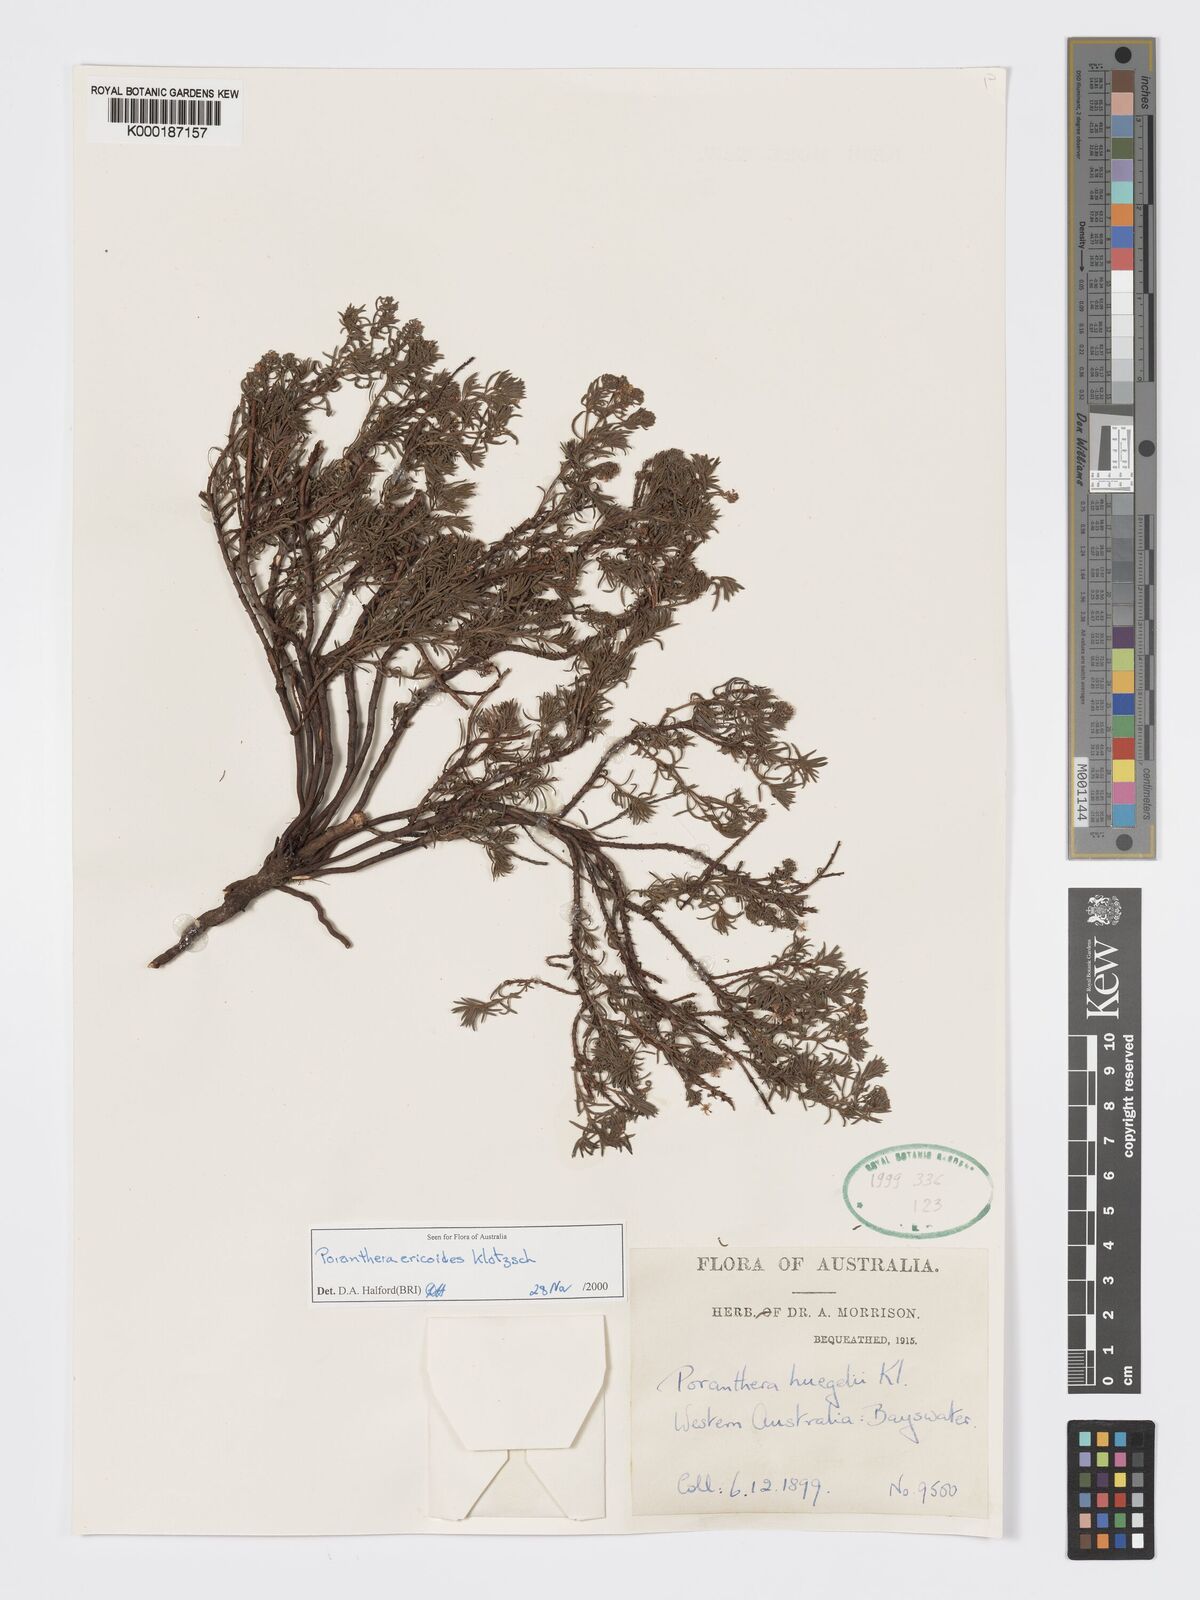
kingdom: Plantae
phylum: Tracheophyta
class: Magnoliopsida
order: Malpighiales
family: Phyllanthaceae
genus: Poranthera
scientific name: Poranthera ericoides
